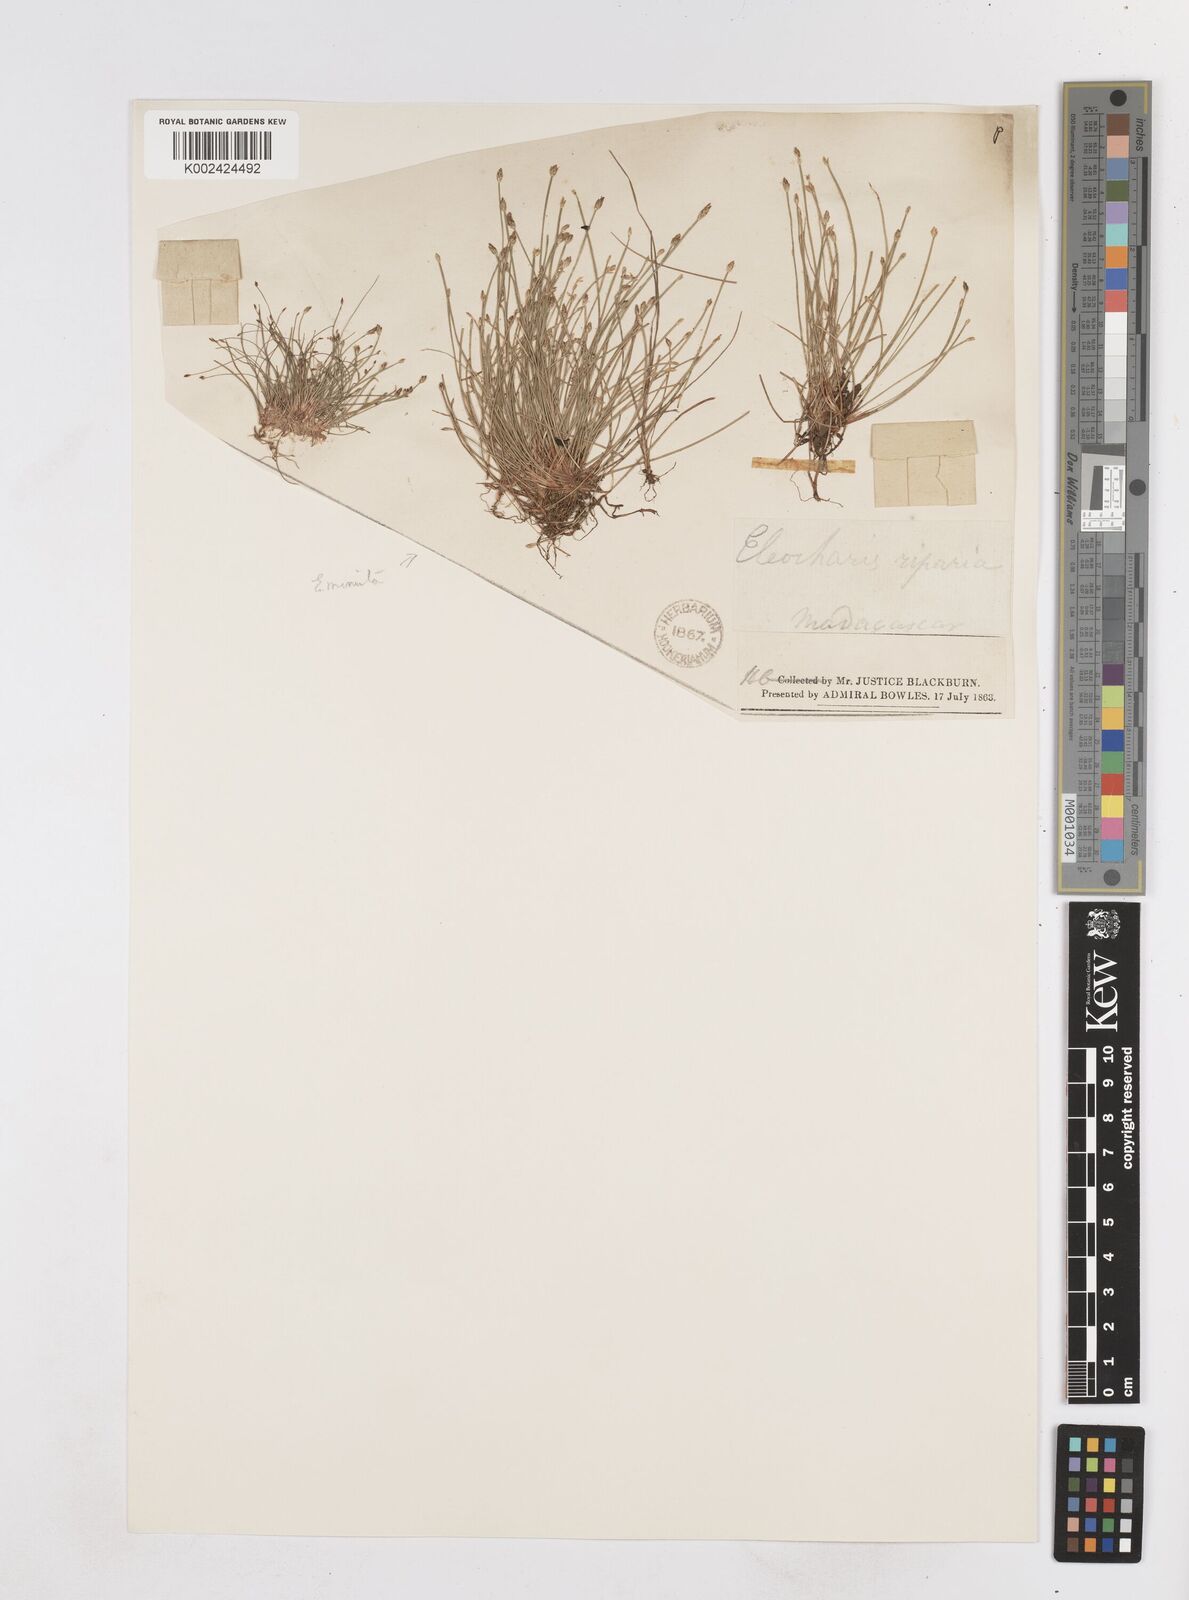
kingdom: Plantae
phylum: Tracheophyta
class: Liliopsida
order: Poales
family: Cyperaceae
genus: Eleocharis
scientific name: Eleocharis minuta
